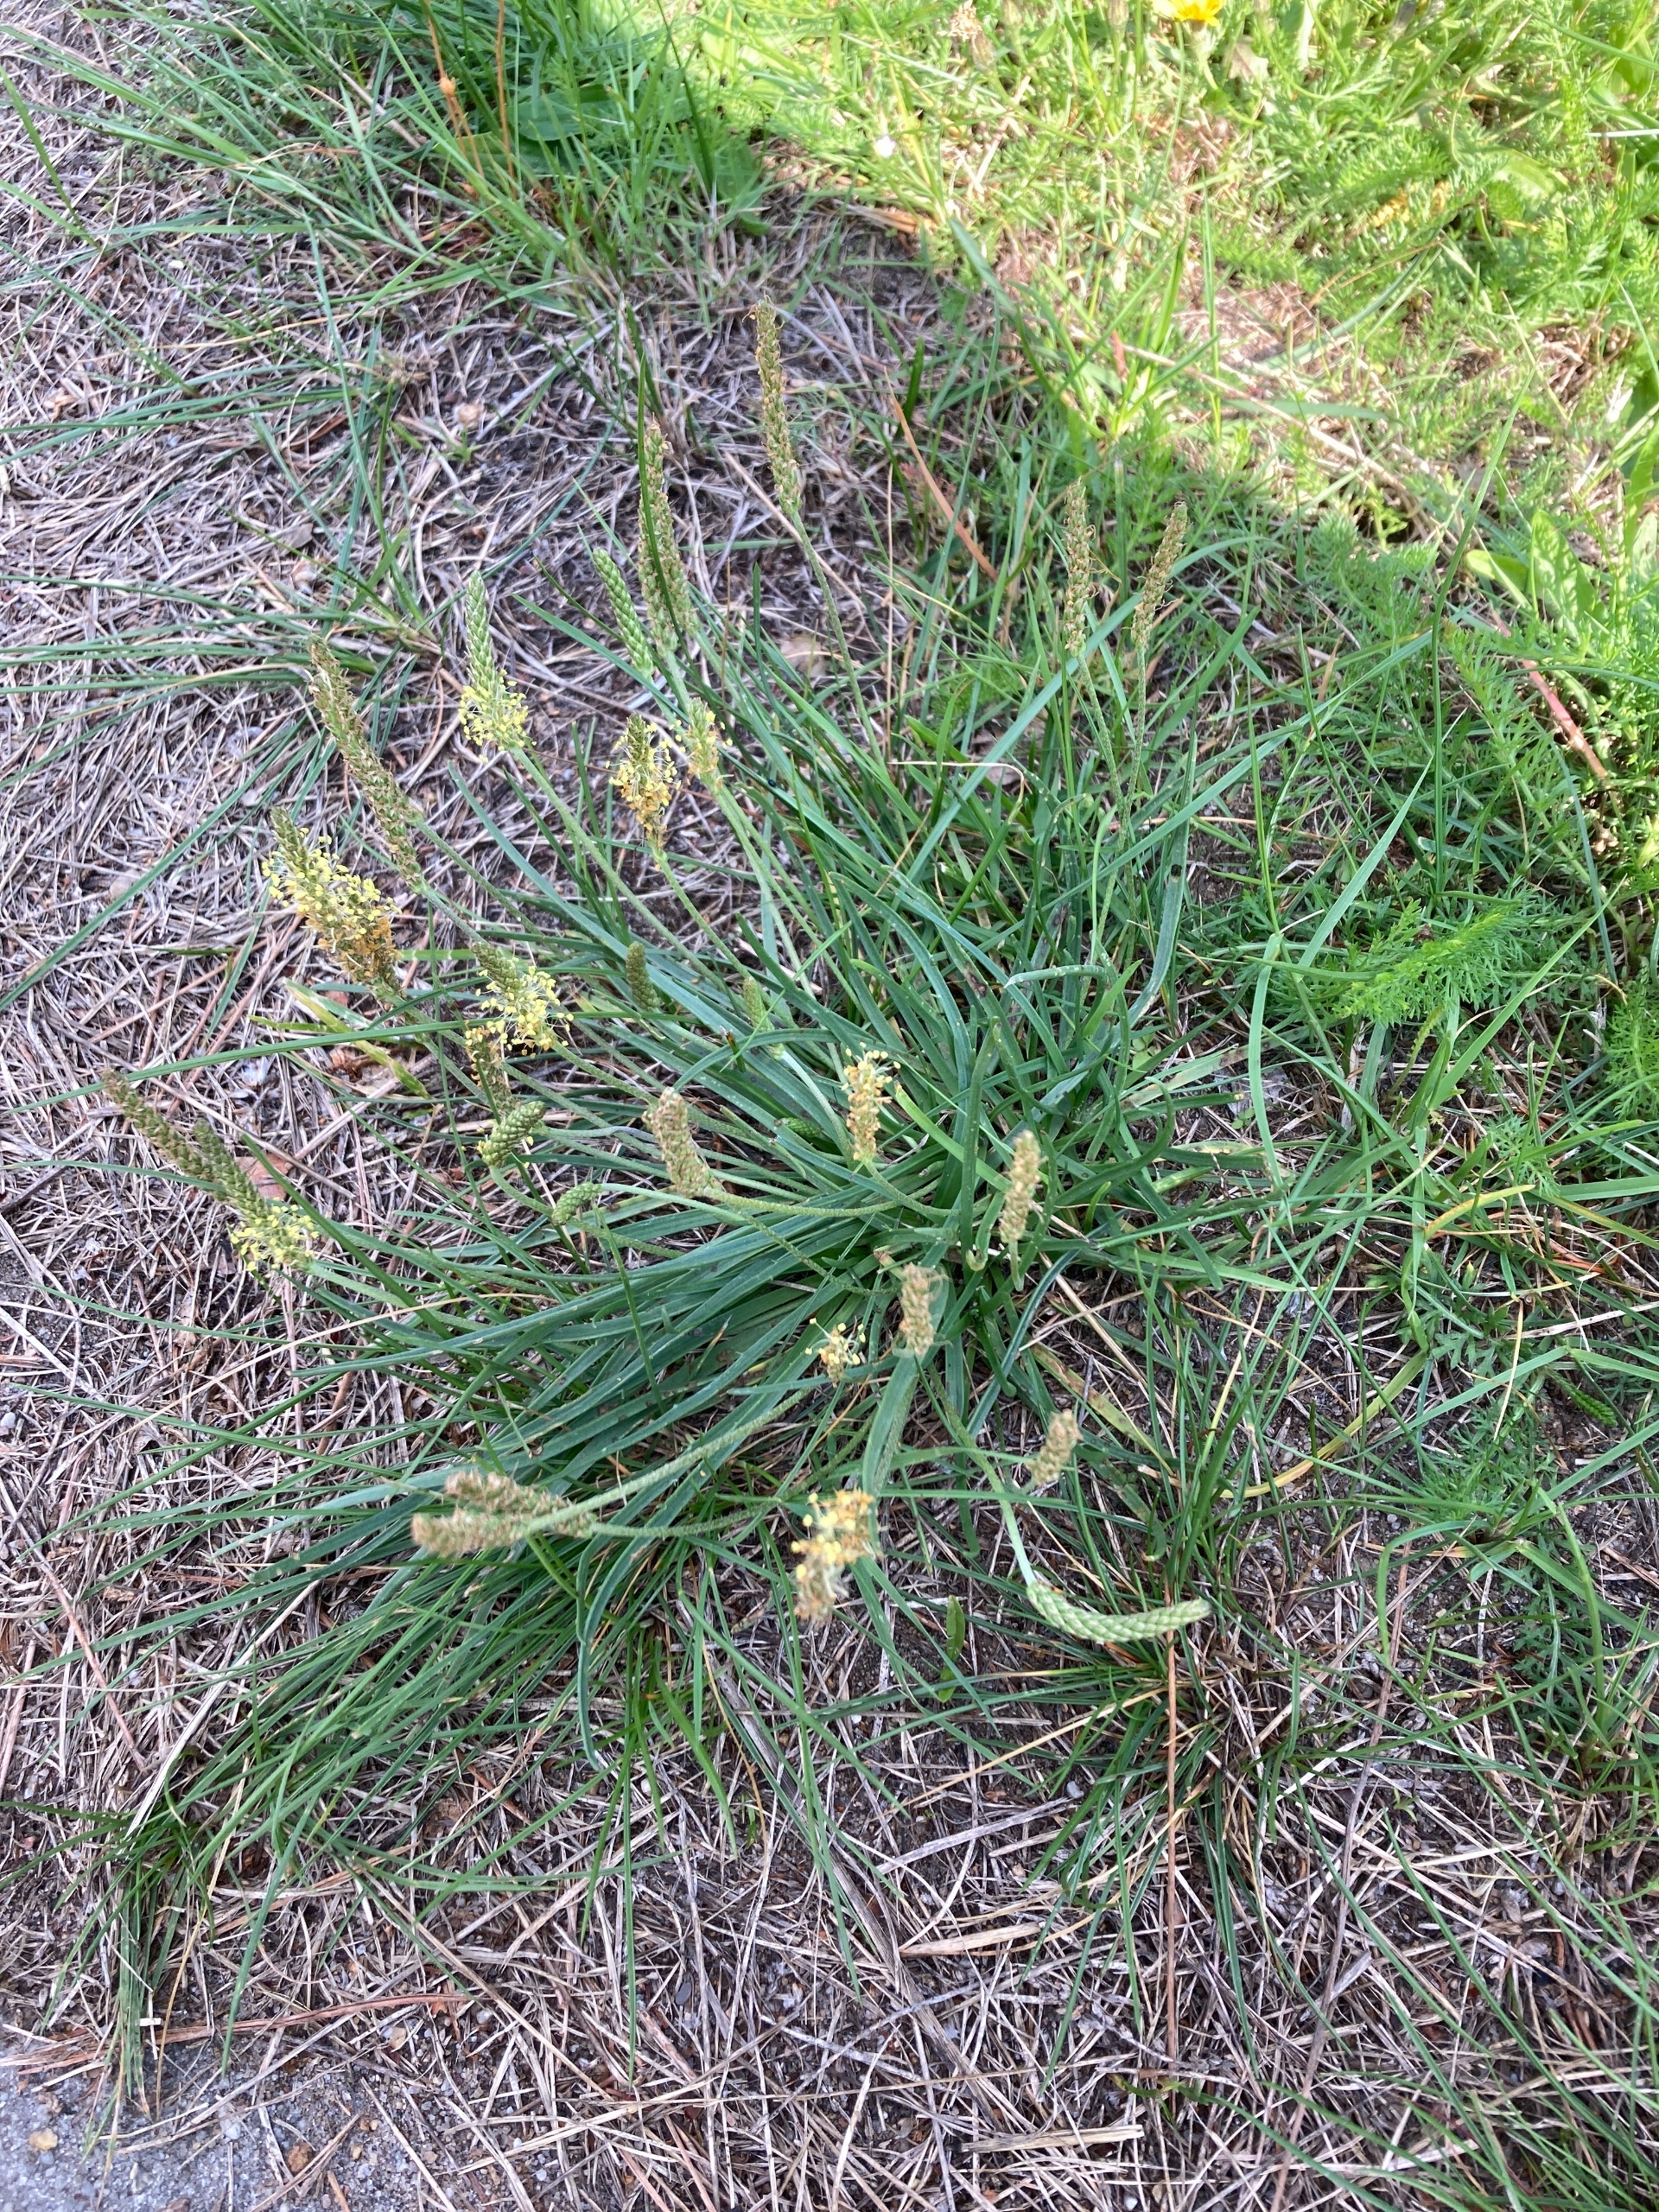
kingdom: Plantae
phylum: Tracheophyta
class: Magnoliopsida
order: Lamiales
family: Plantaginaceae
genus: Plantago
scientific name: Plantago maritima
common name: Strand-vejbred
